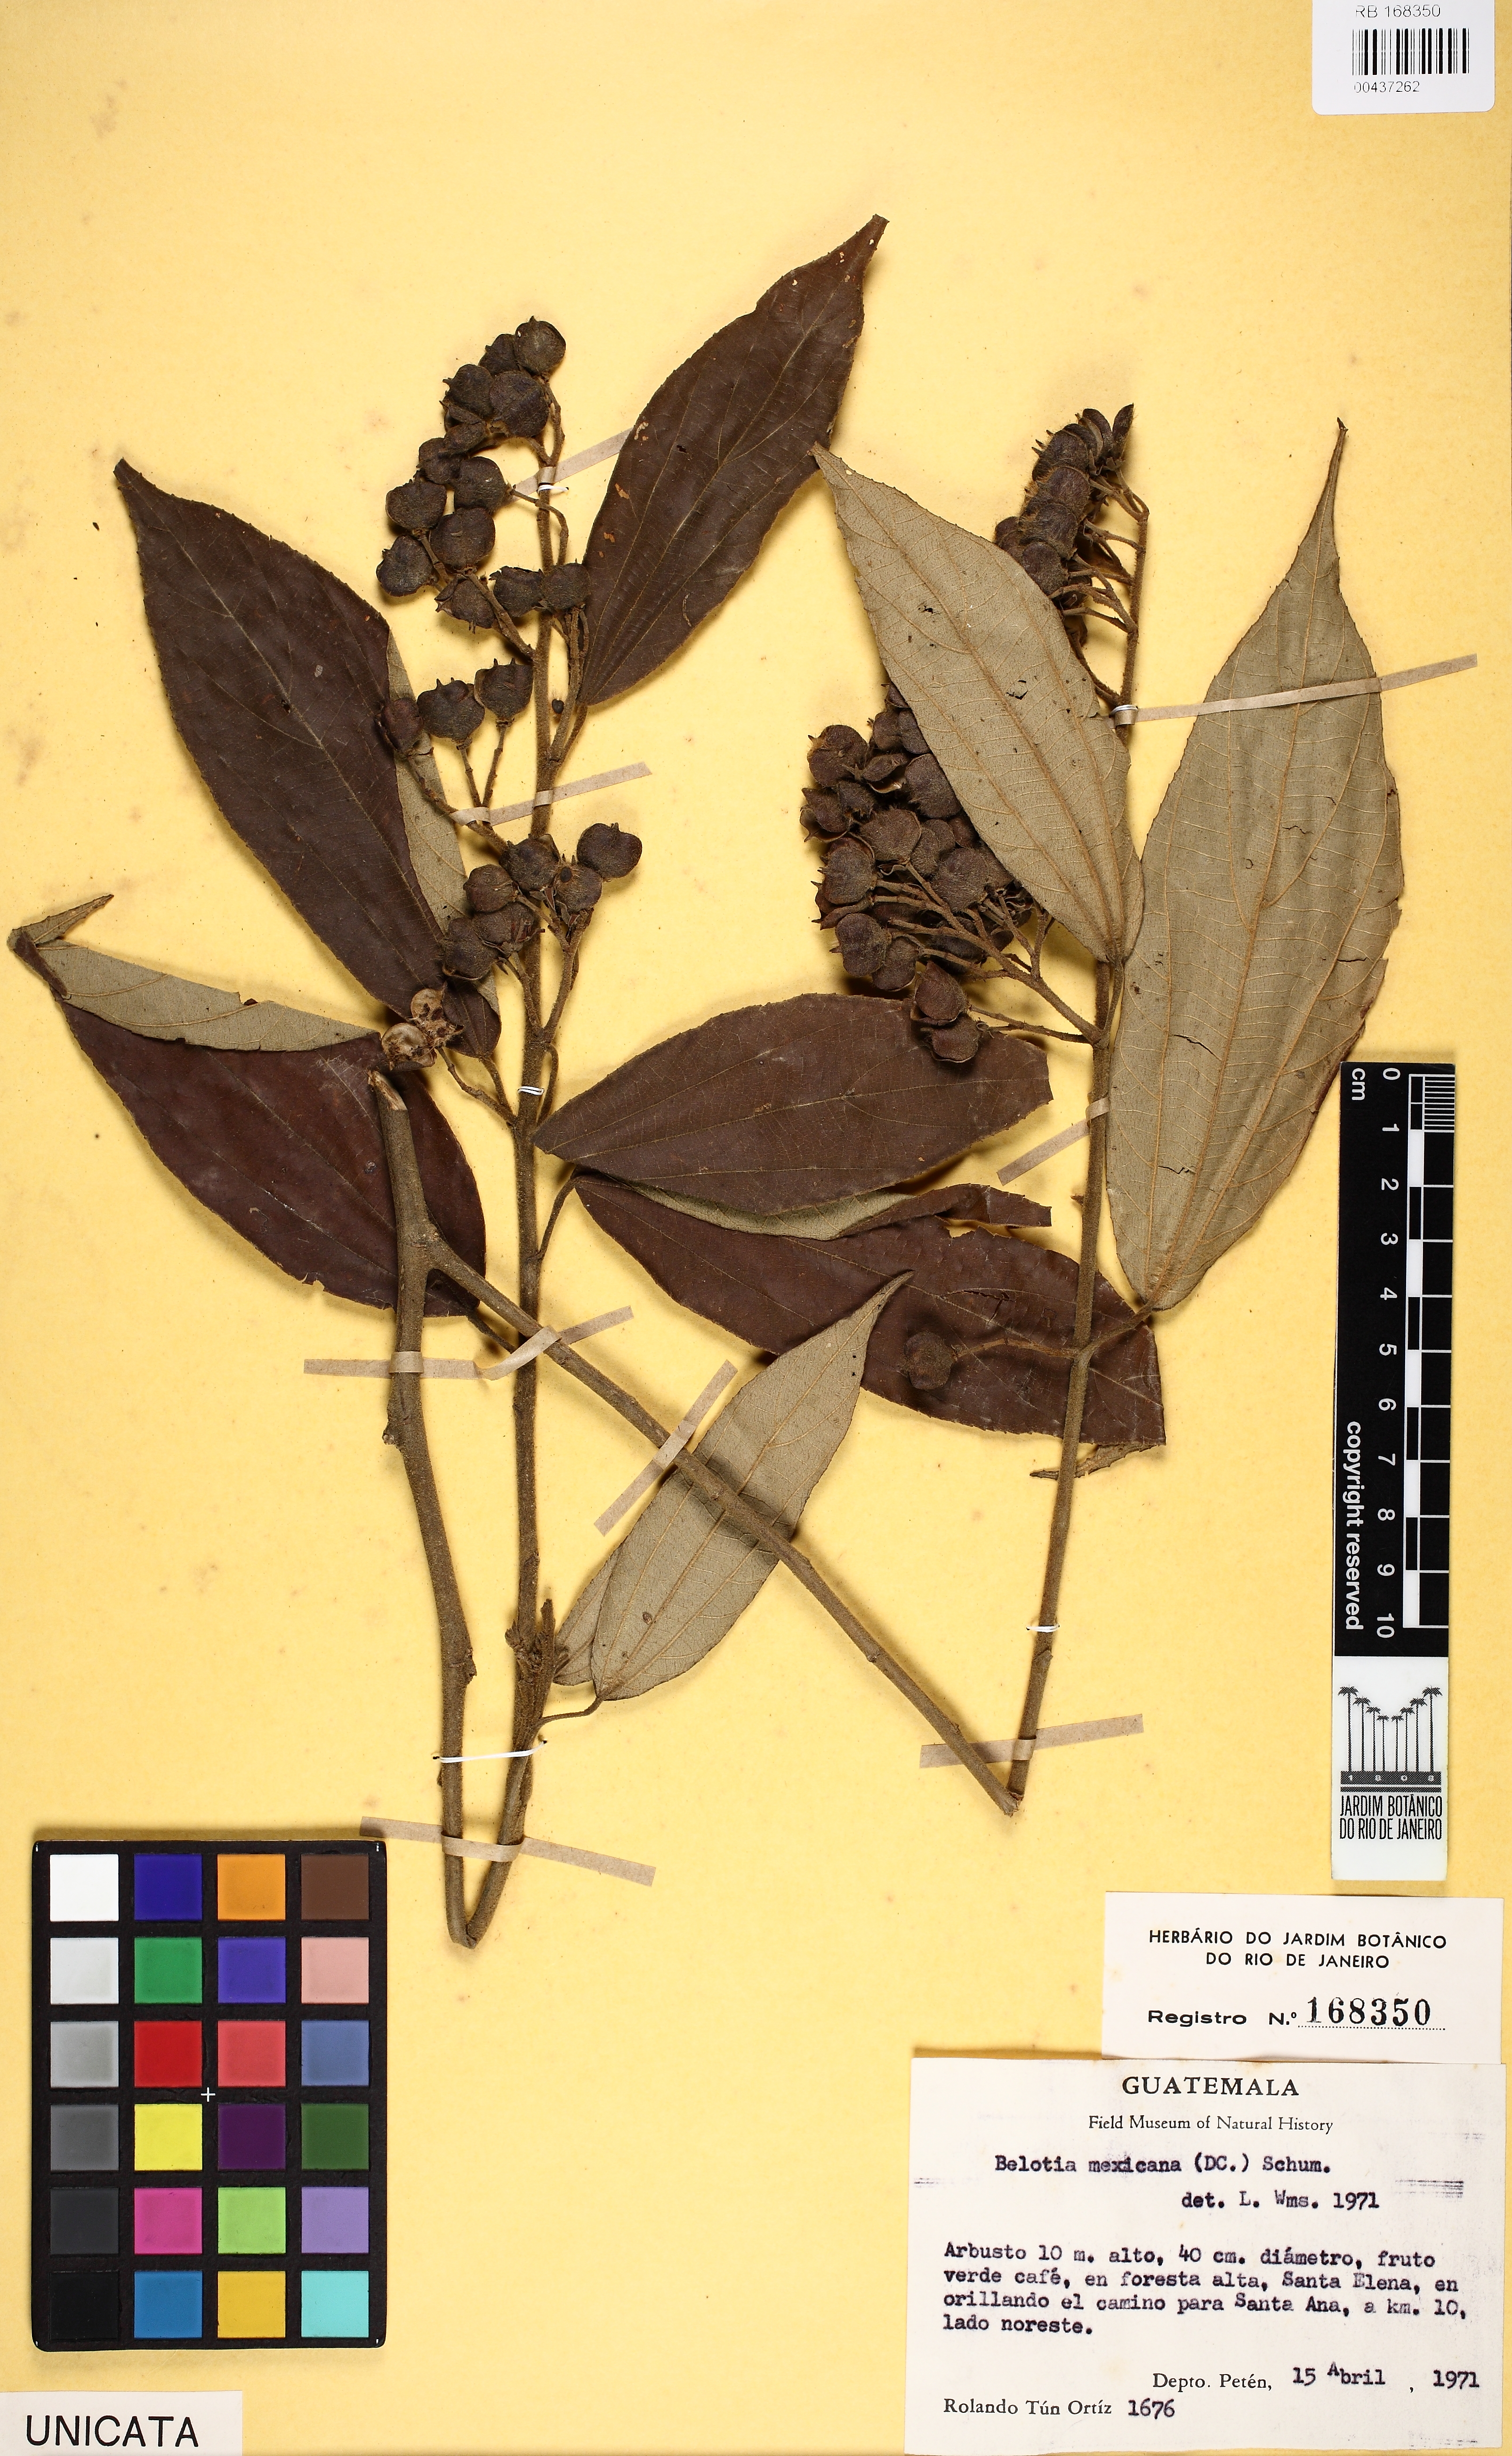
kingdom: Plantae
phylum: Tracheophyta
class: Magnoliopsida
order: Malvales
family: Malvaceae
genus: Trichospermum
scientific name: Trichospermum mexicanum
